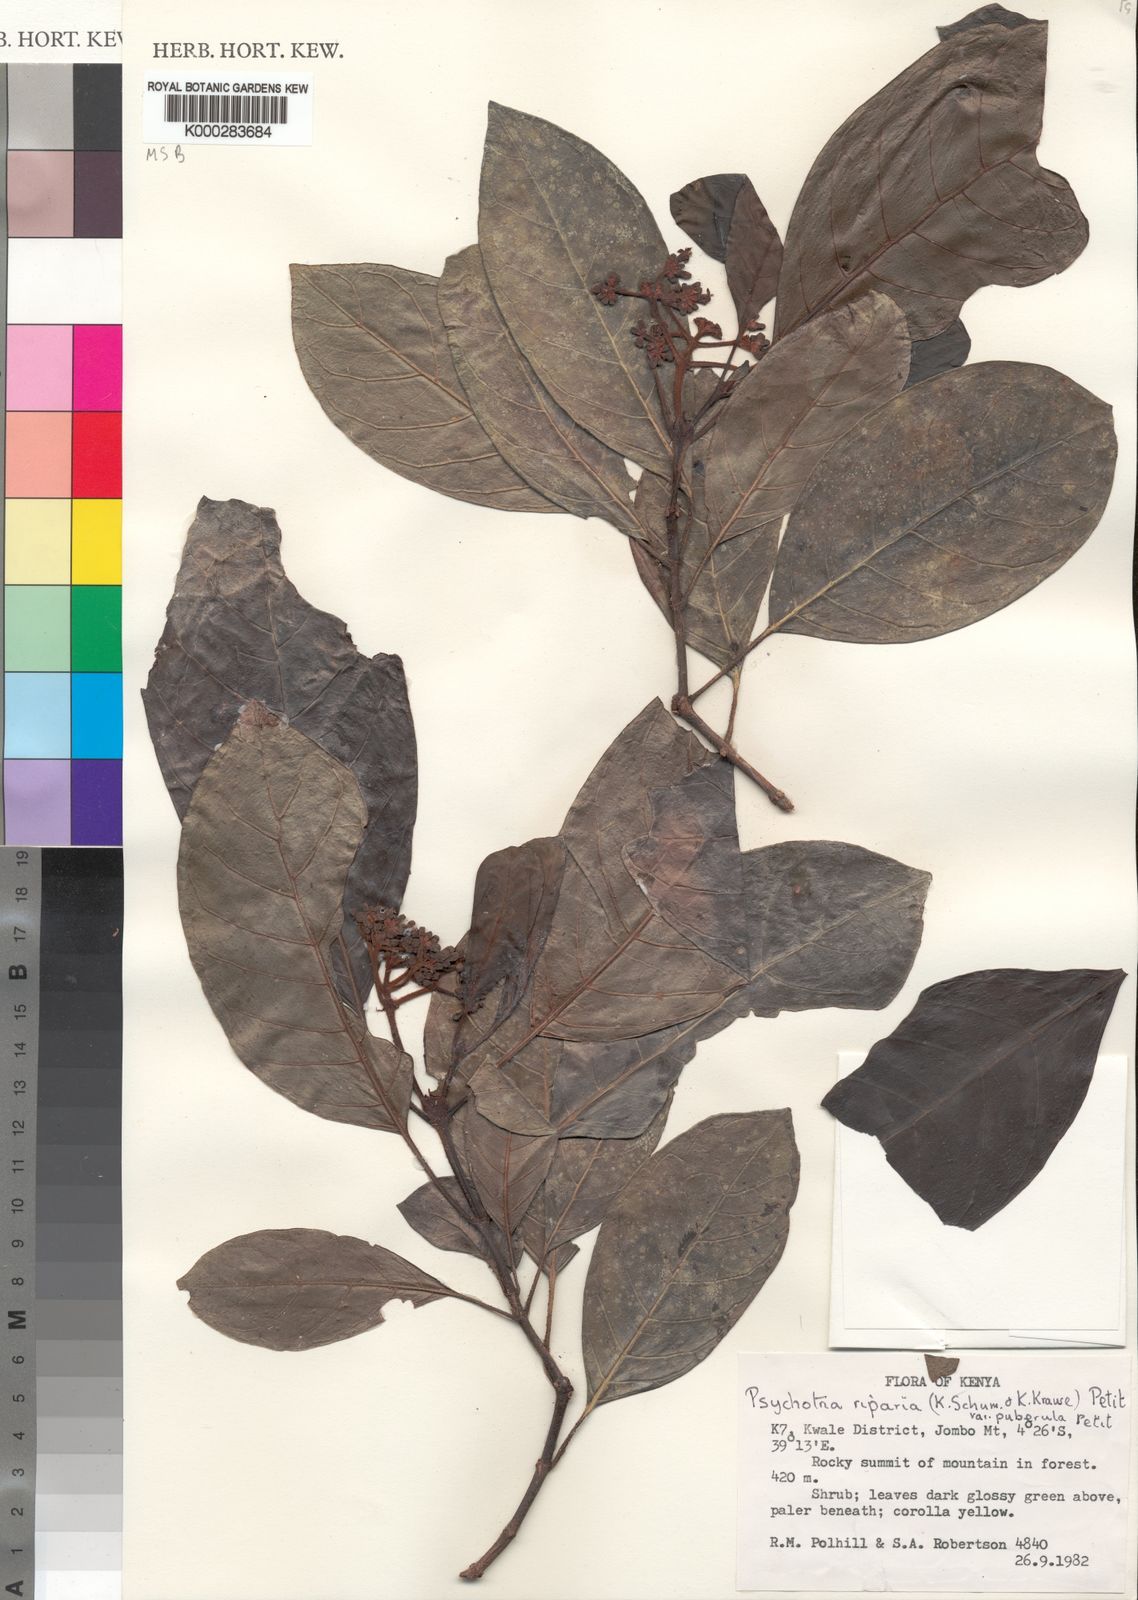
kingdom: Plantae
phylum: Tracheophyta
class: Magnoliopsida
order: Gentianales
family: Rubiaceae
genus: Psychotria
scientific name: Psychotria capensis
